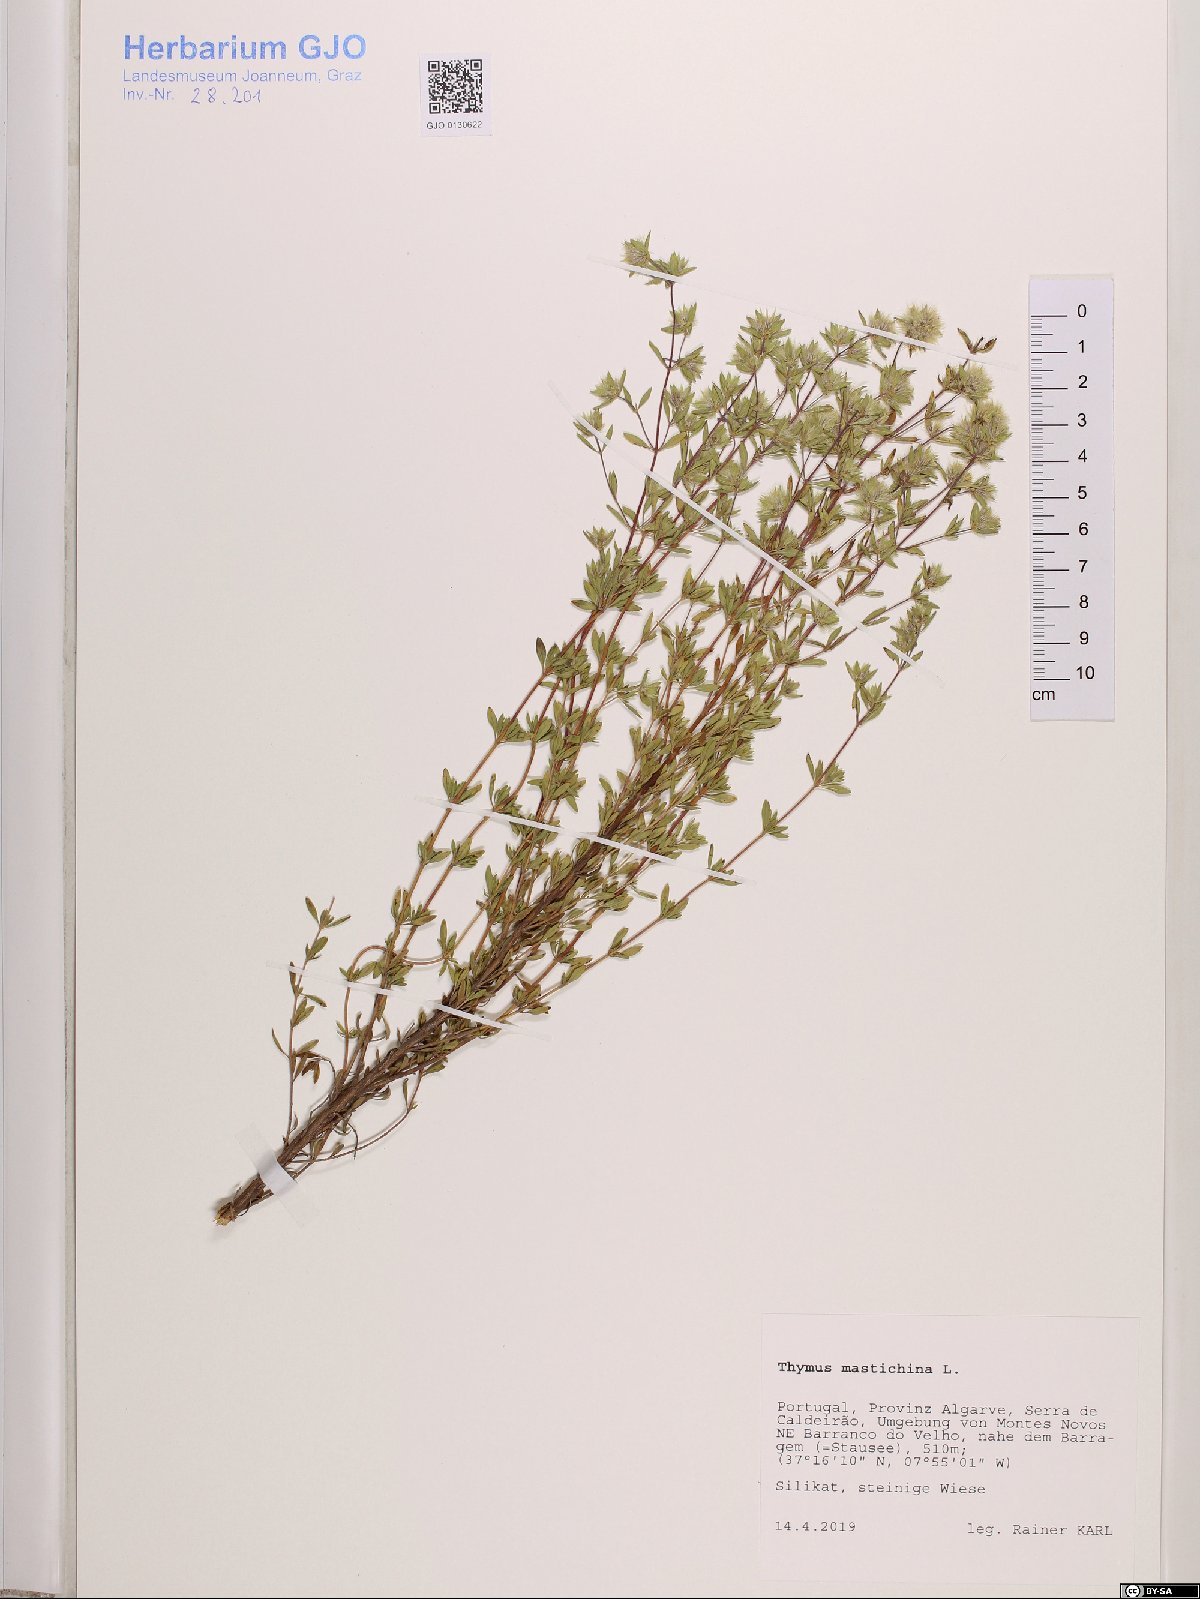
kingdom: Plantae
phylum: Tracheophyta
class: Magnoliopsida
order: Lamiales
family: Lamiaceae
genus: Thymus
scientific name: Thymus mastichina
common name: Mastic thyme
